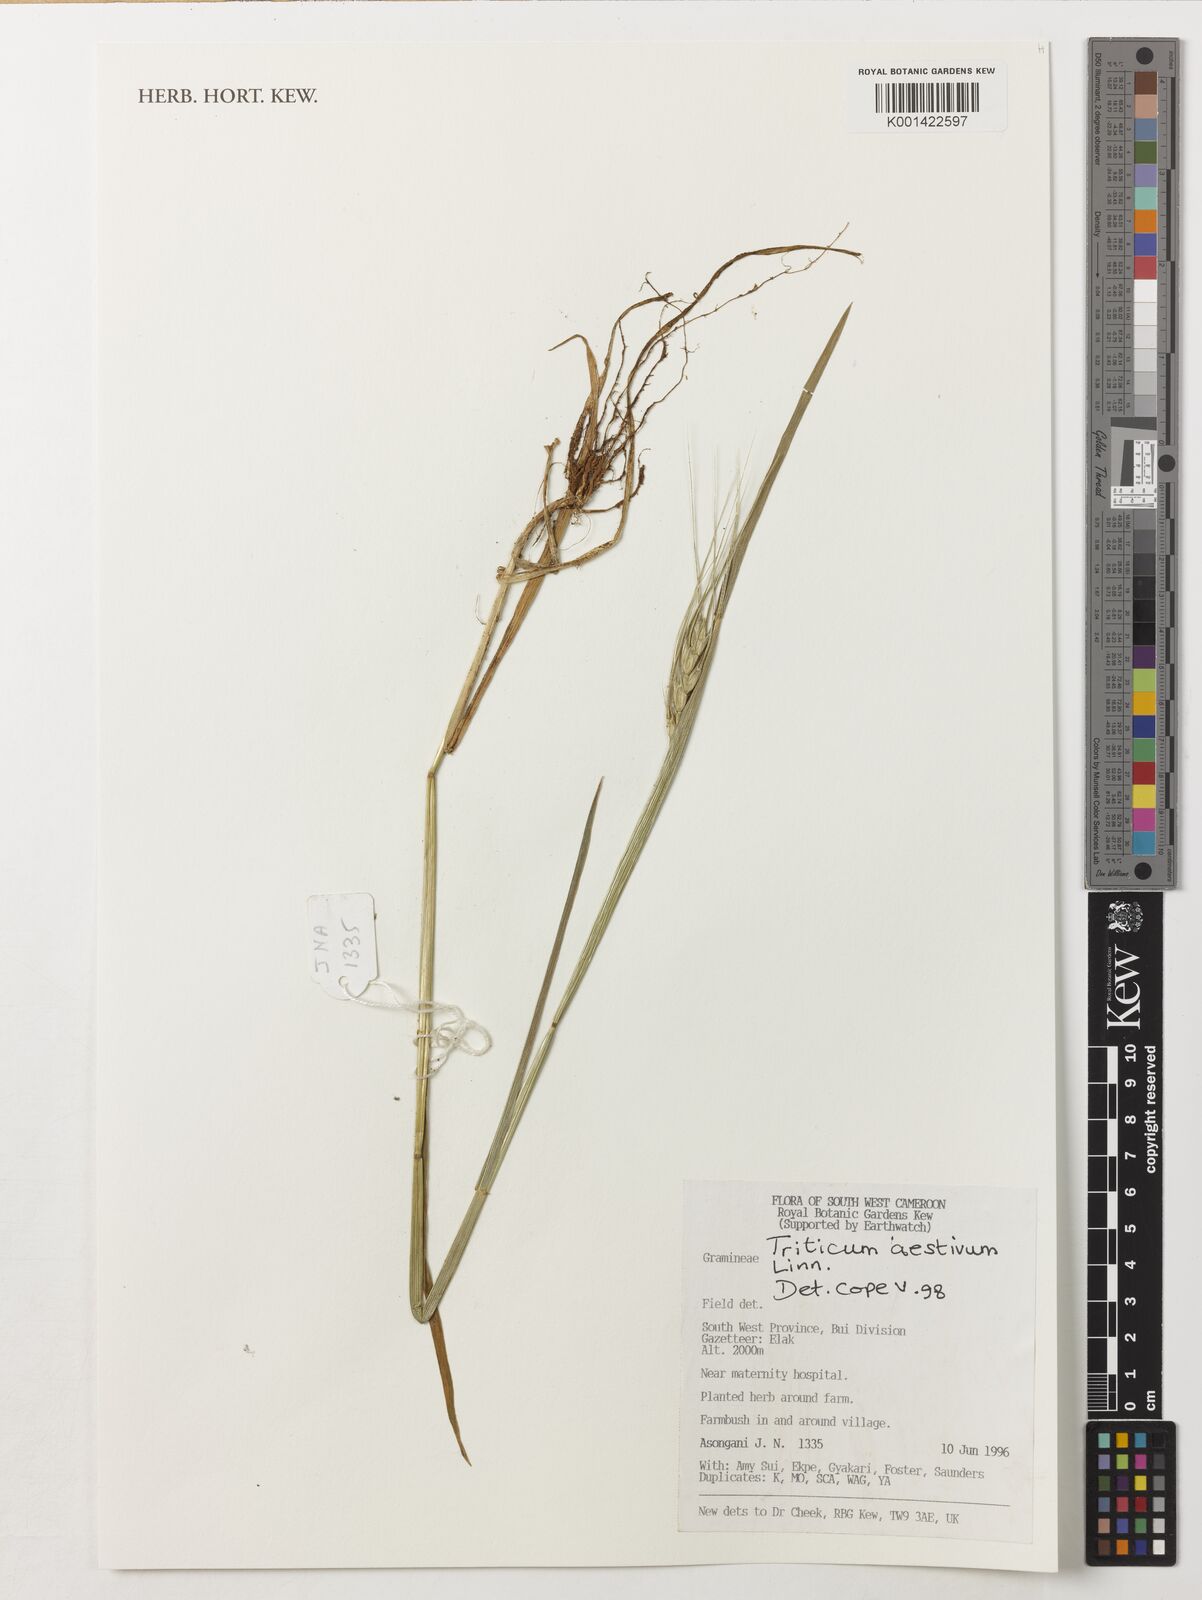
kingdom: Plantae
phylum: Tracheophyta
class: Liliopsida
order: Poales
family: Poaceae
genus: Triticum
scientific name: Triticum aestivum
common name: Common wheat
